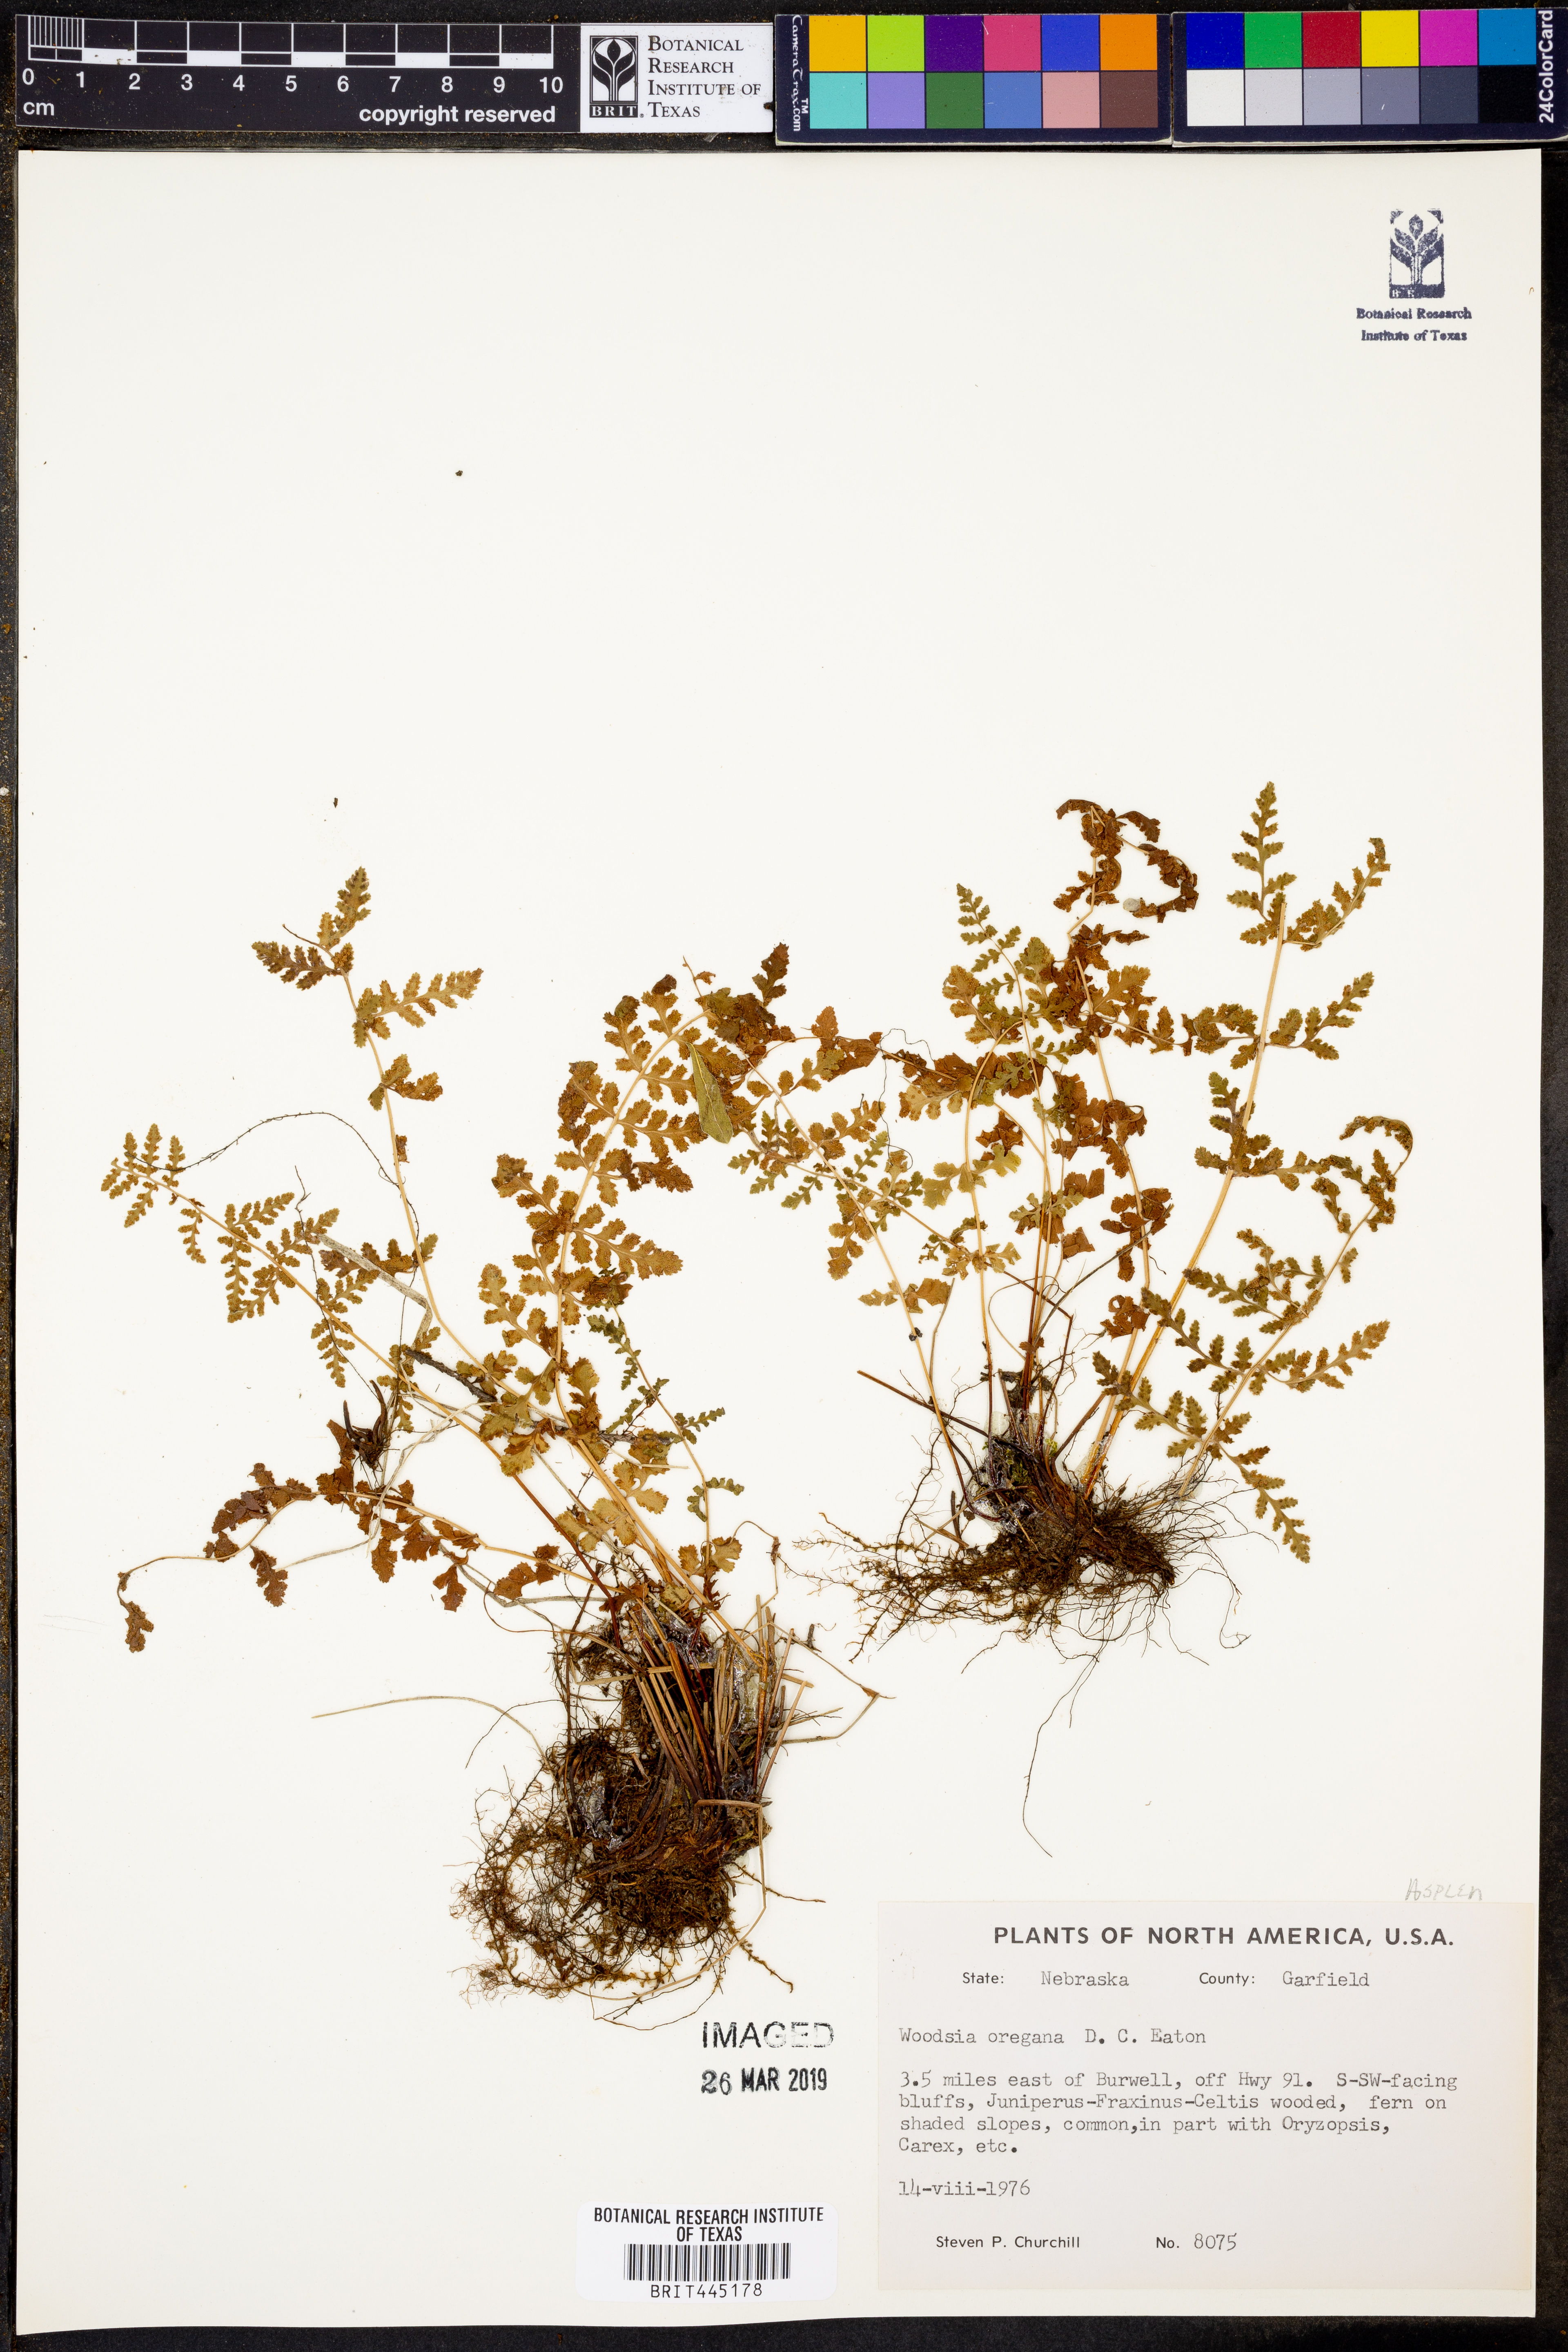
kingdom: Plantae
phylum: Tracheophyta
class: Polypodiopsida
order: Polypodiales
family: Woodsiaceae
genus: Physematium
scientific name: Physematium oreganum
